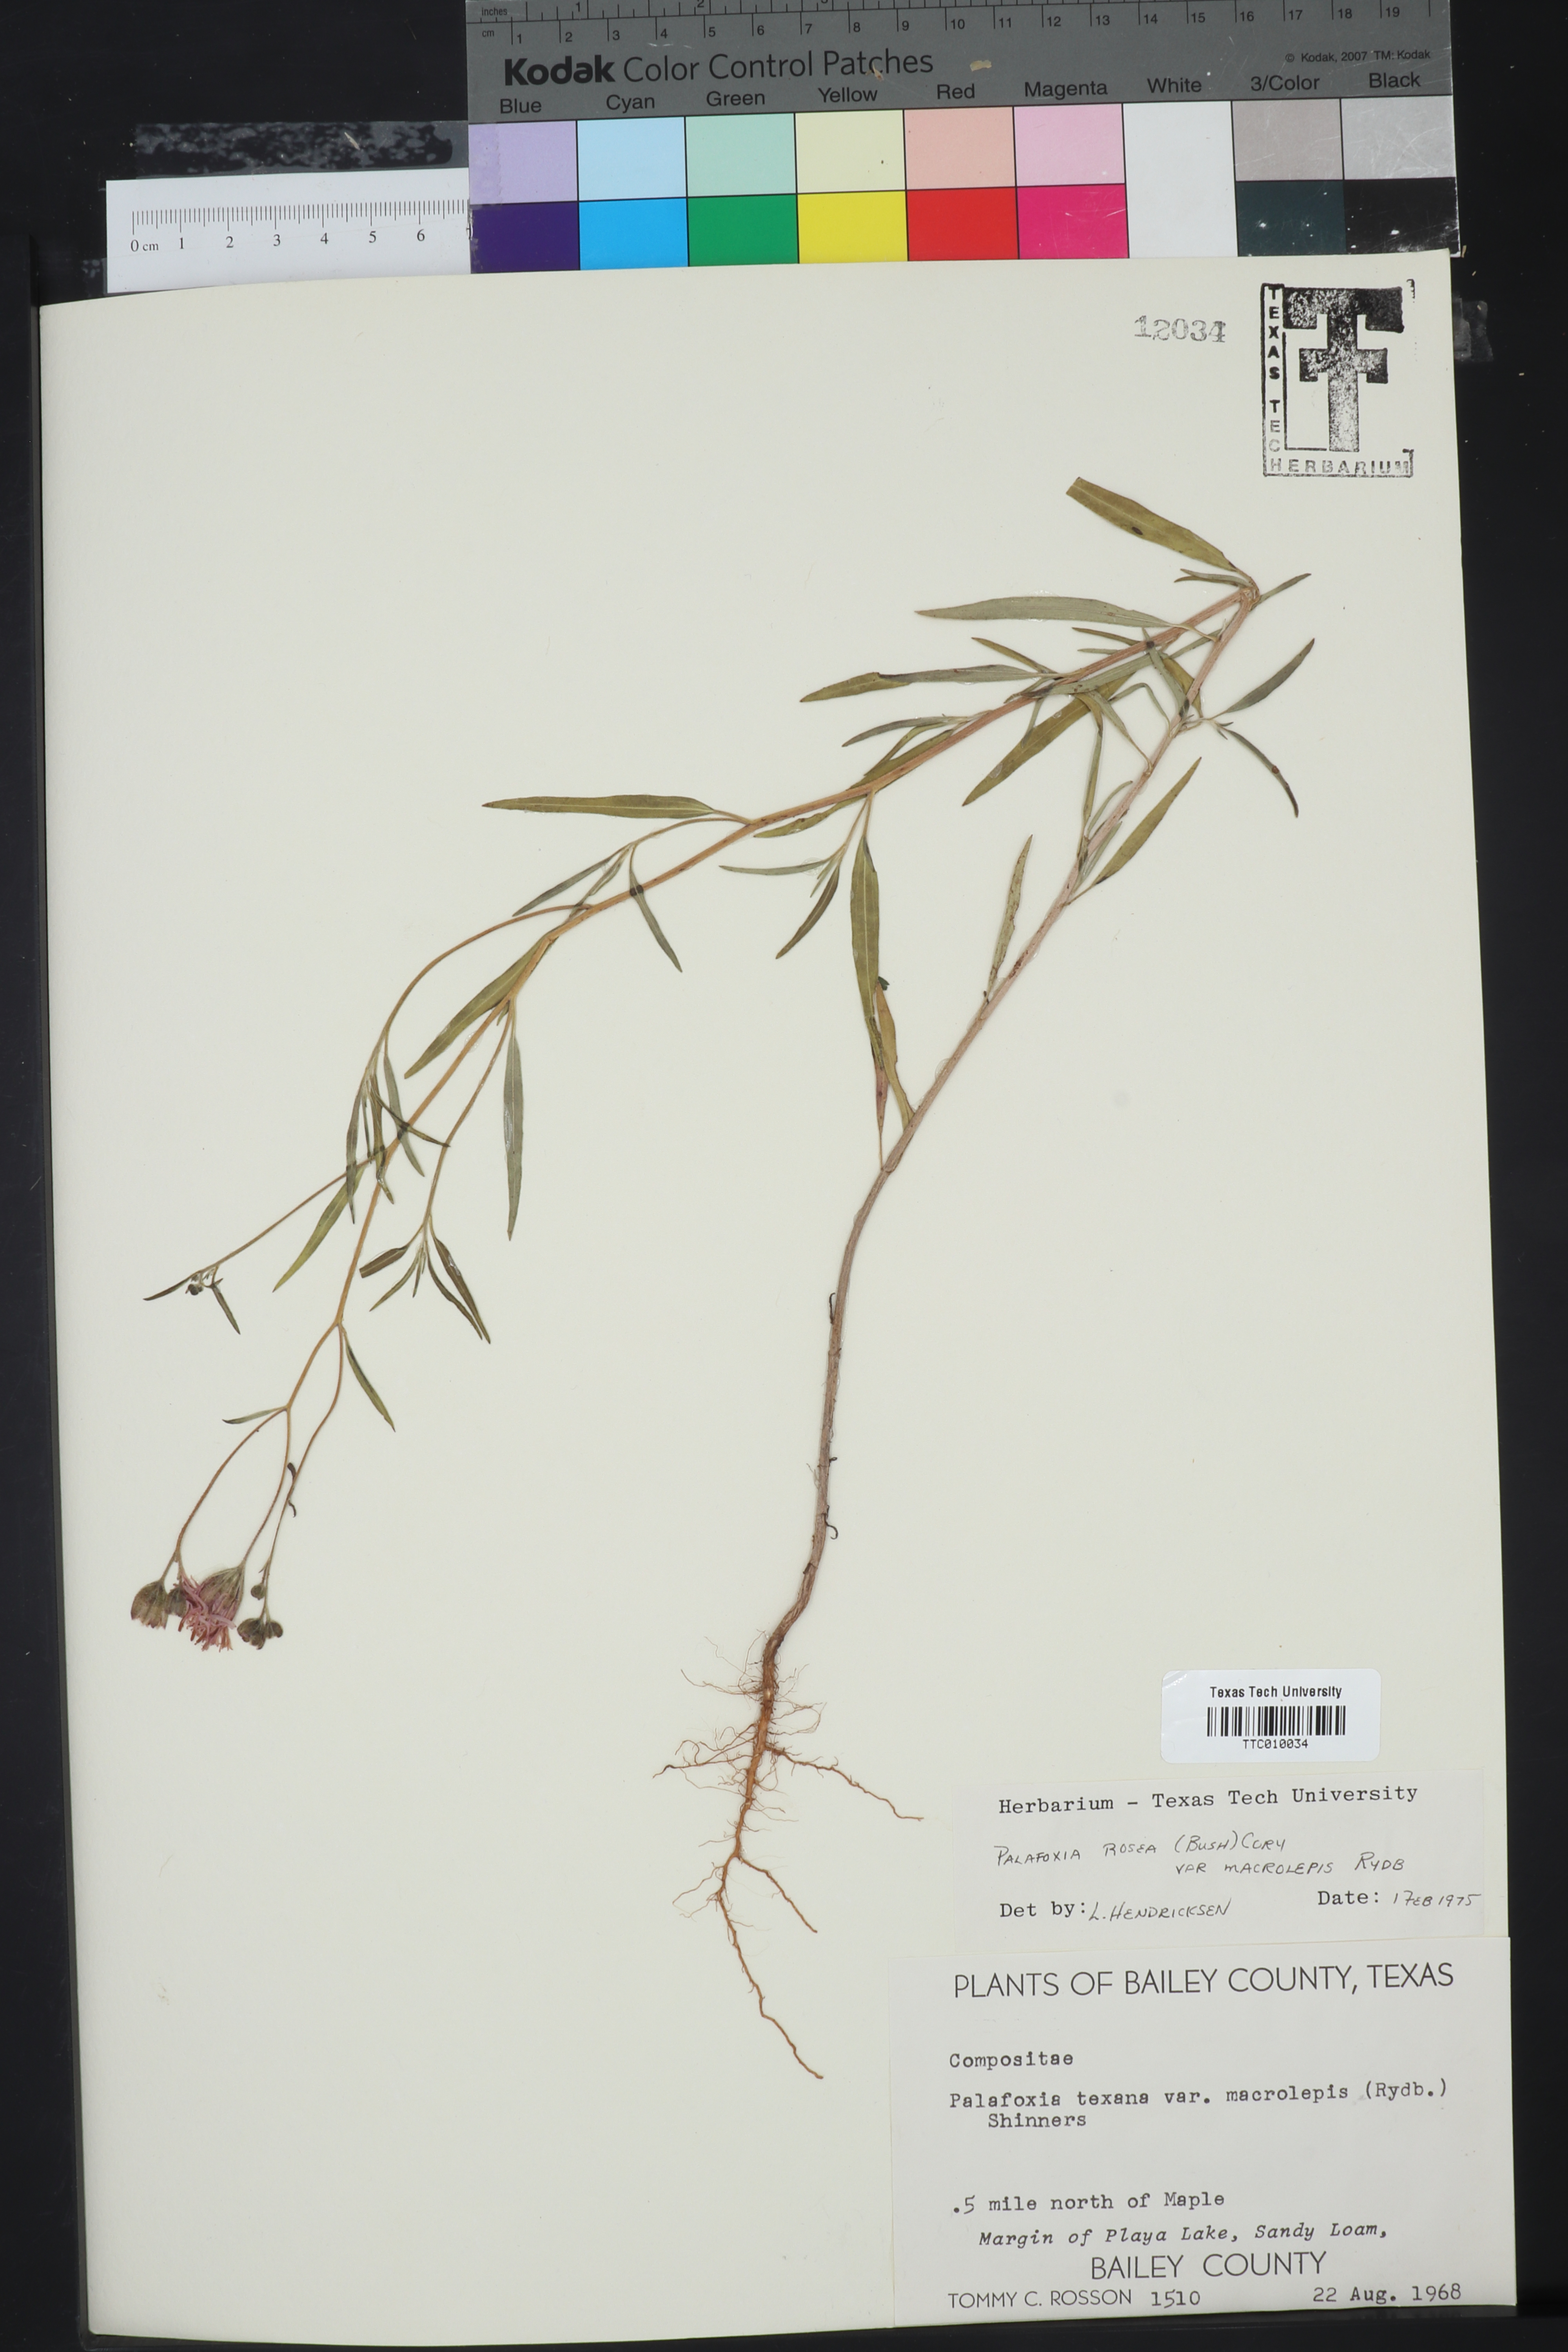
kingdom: Plantae
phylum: Tracheophyta
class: Magnoliopsida
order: Asterales
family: Asteraceae
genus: Palafoxia
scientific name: Palafoxia rosea
